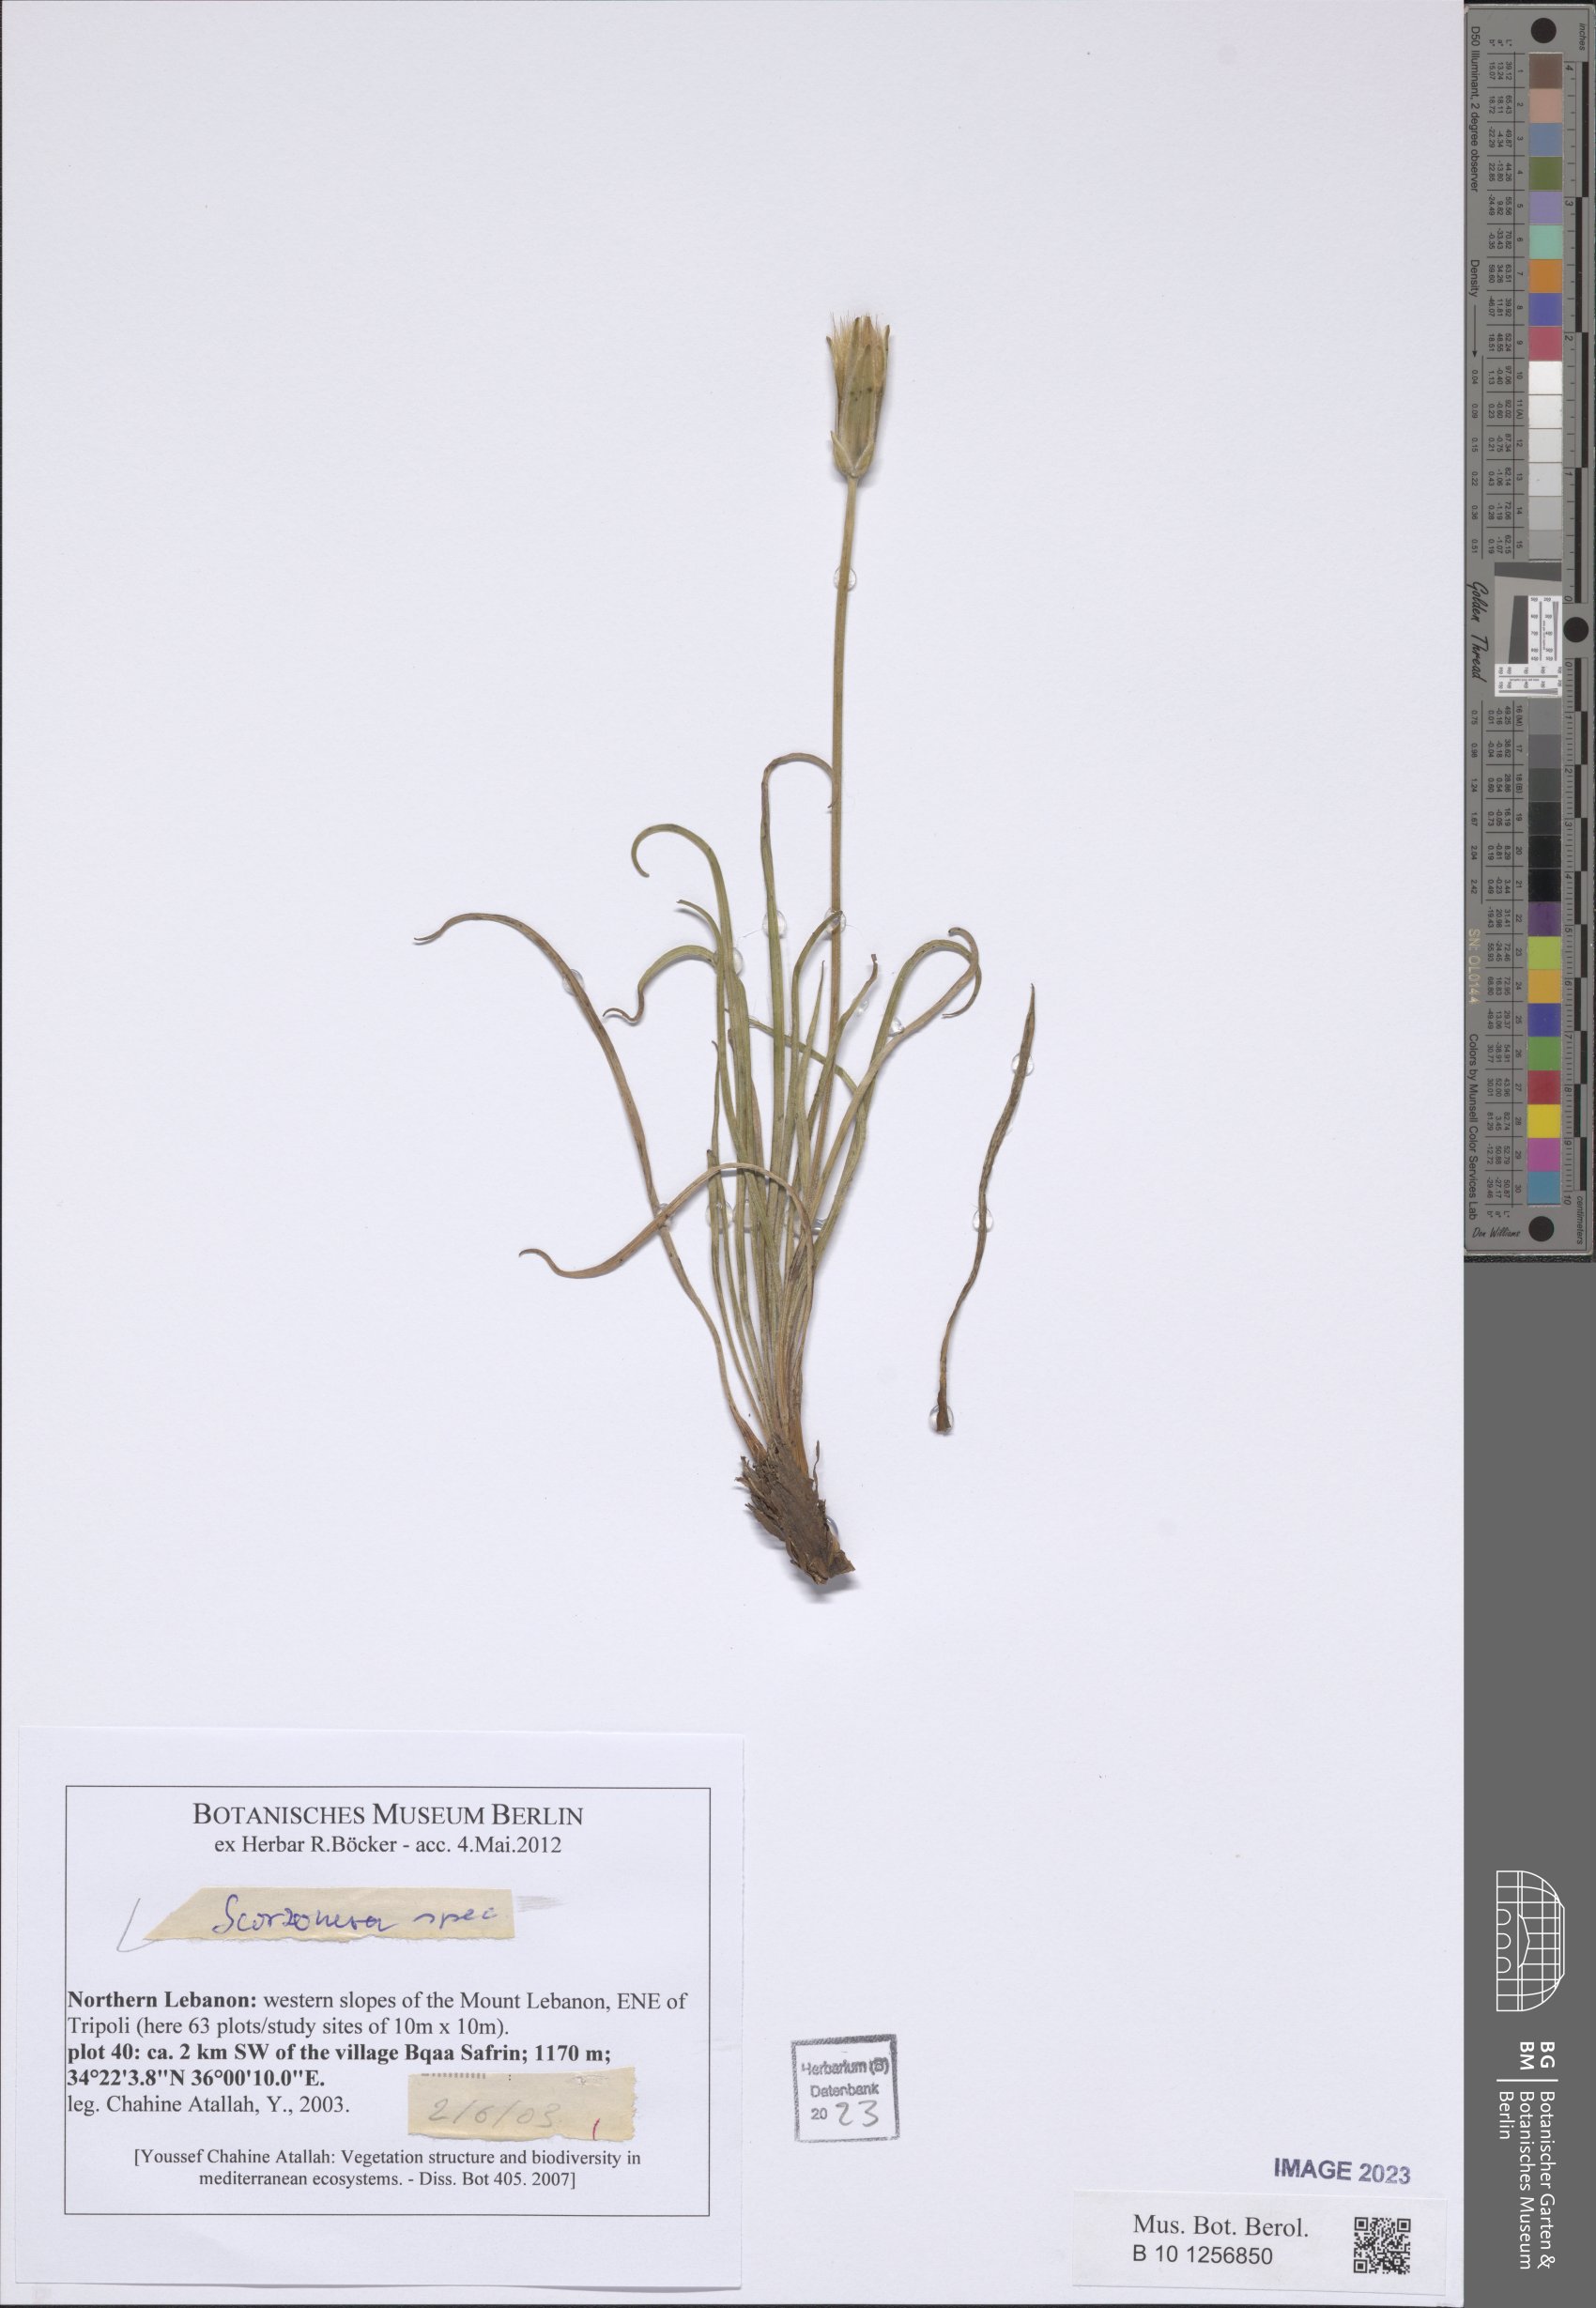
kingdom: Plantae
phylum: Tracheophyta
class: Magnoliopsida
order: Asterales
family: Asteraceae
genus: Scorzonera
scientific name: Scorzonera
